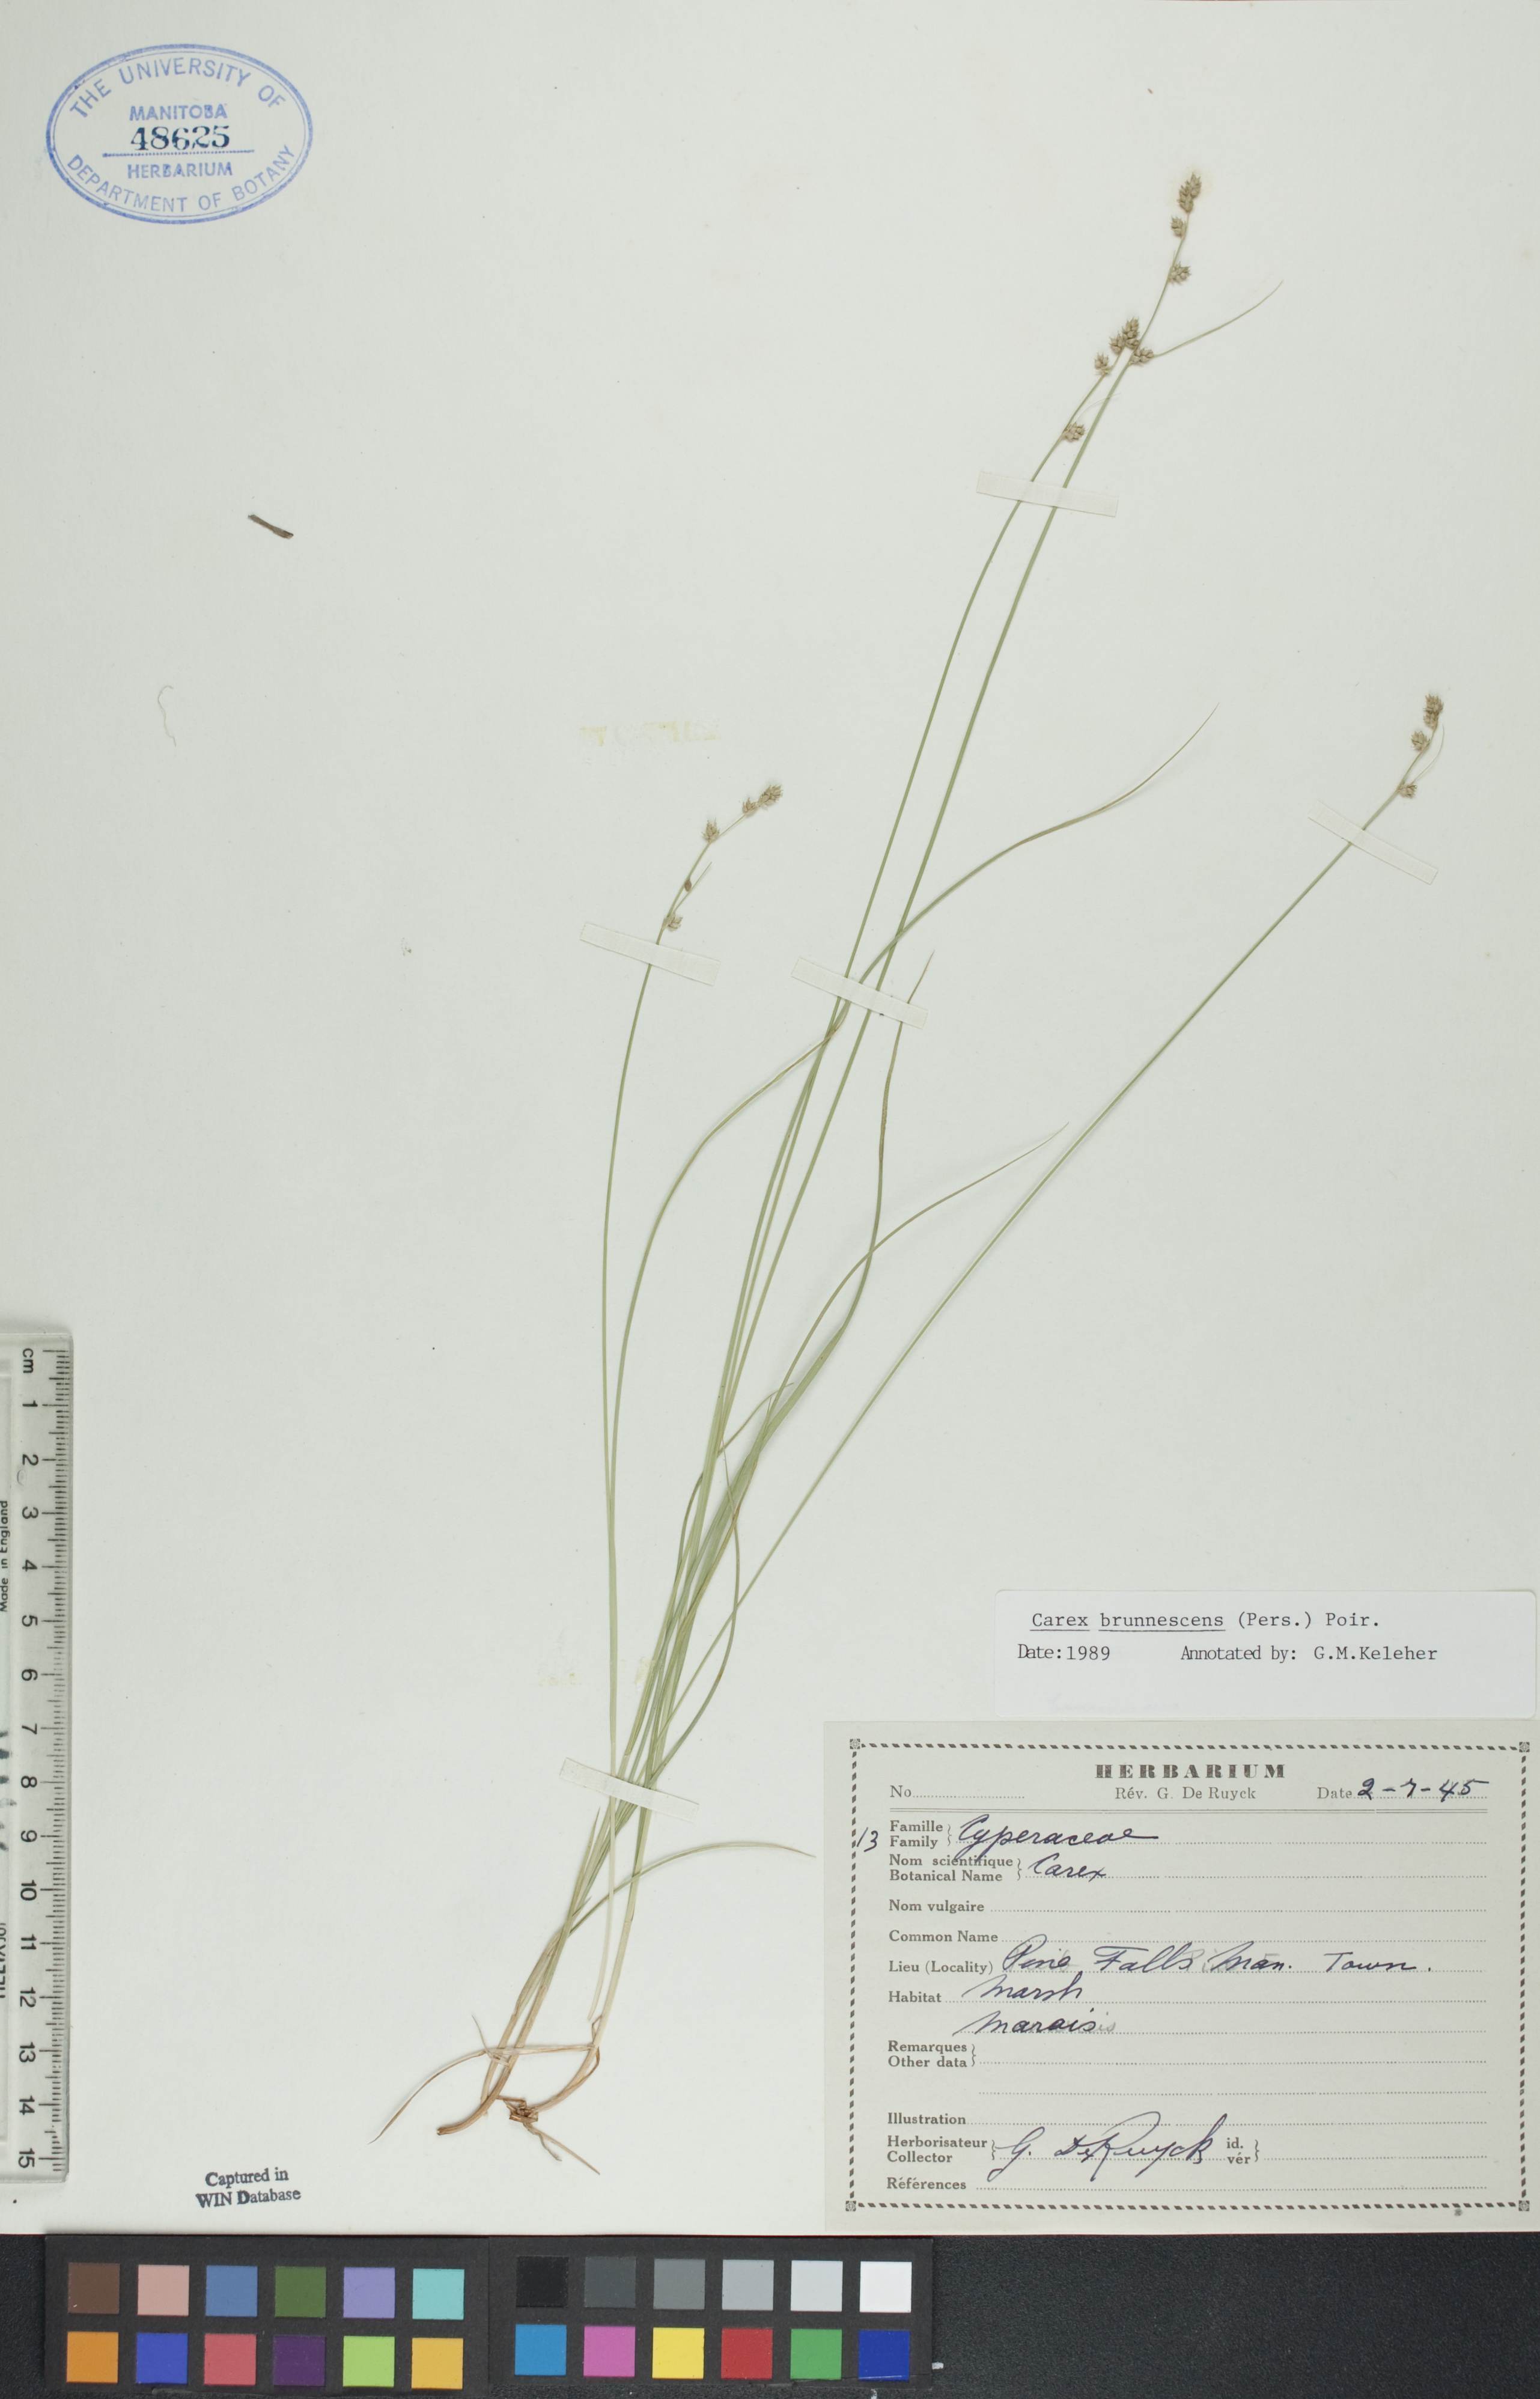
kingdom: Plantae
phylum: Tracheophyta
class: Liliopsida
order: Poales
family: Cyperaceae
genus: Carex
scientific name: Carex brunnescens
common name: Brown sedge
